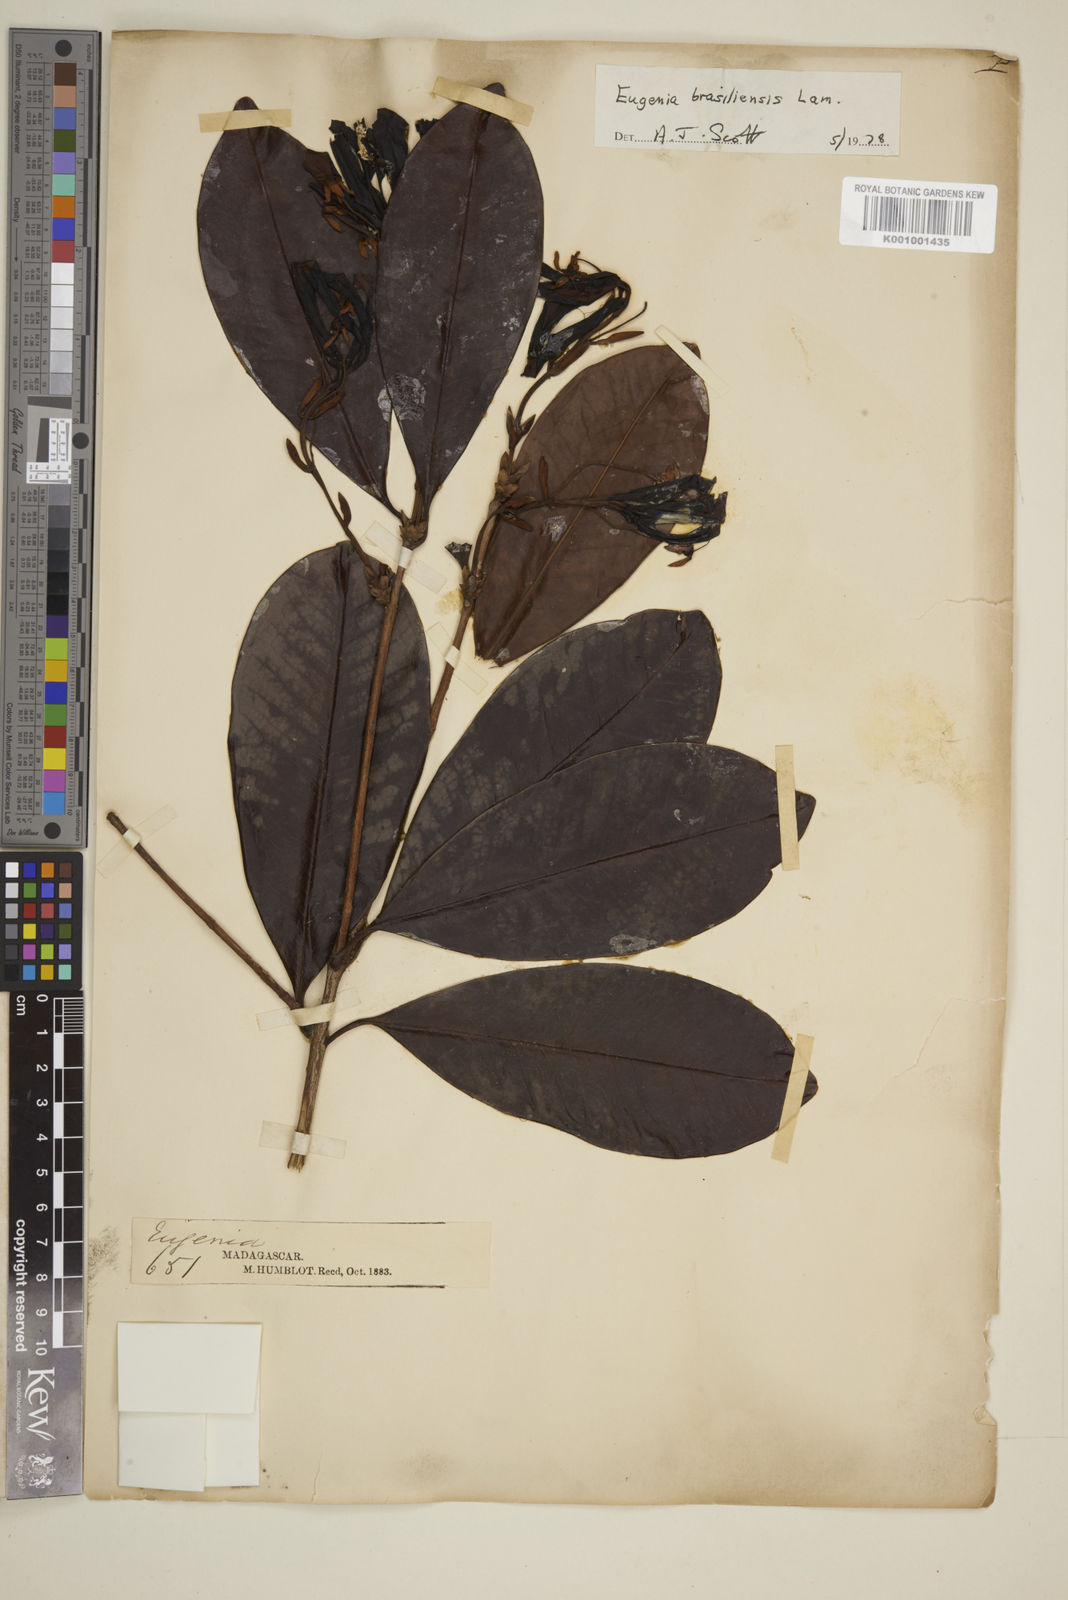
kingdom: Plantae
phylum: Tracheophyta
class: Magnoliopsida
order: Myrtales
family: Myrtaceae
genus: Eugenia
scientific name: Eugenia humblotii
